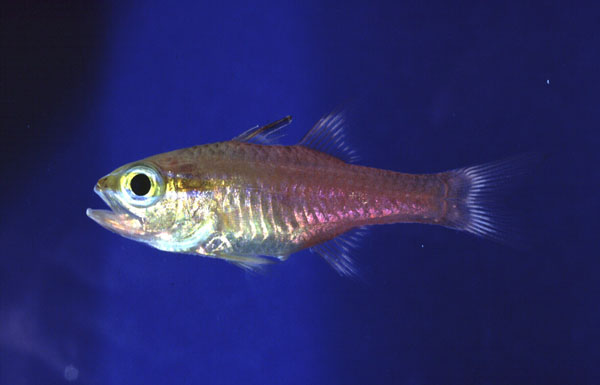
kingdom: Animalia
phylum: Chordata
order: Perciformes
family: Apogonidae
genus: Ostorhinchus
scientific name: Ostorhinchus apogonoides
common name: Goldbelly cardinalfish
